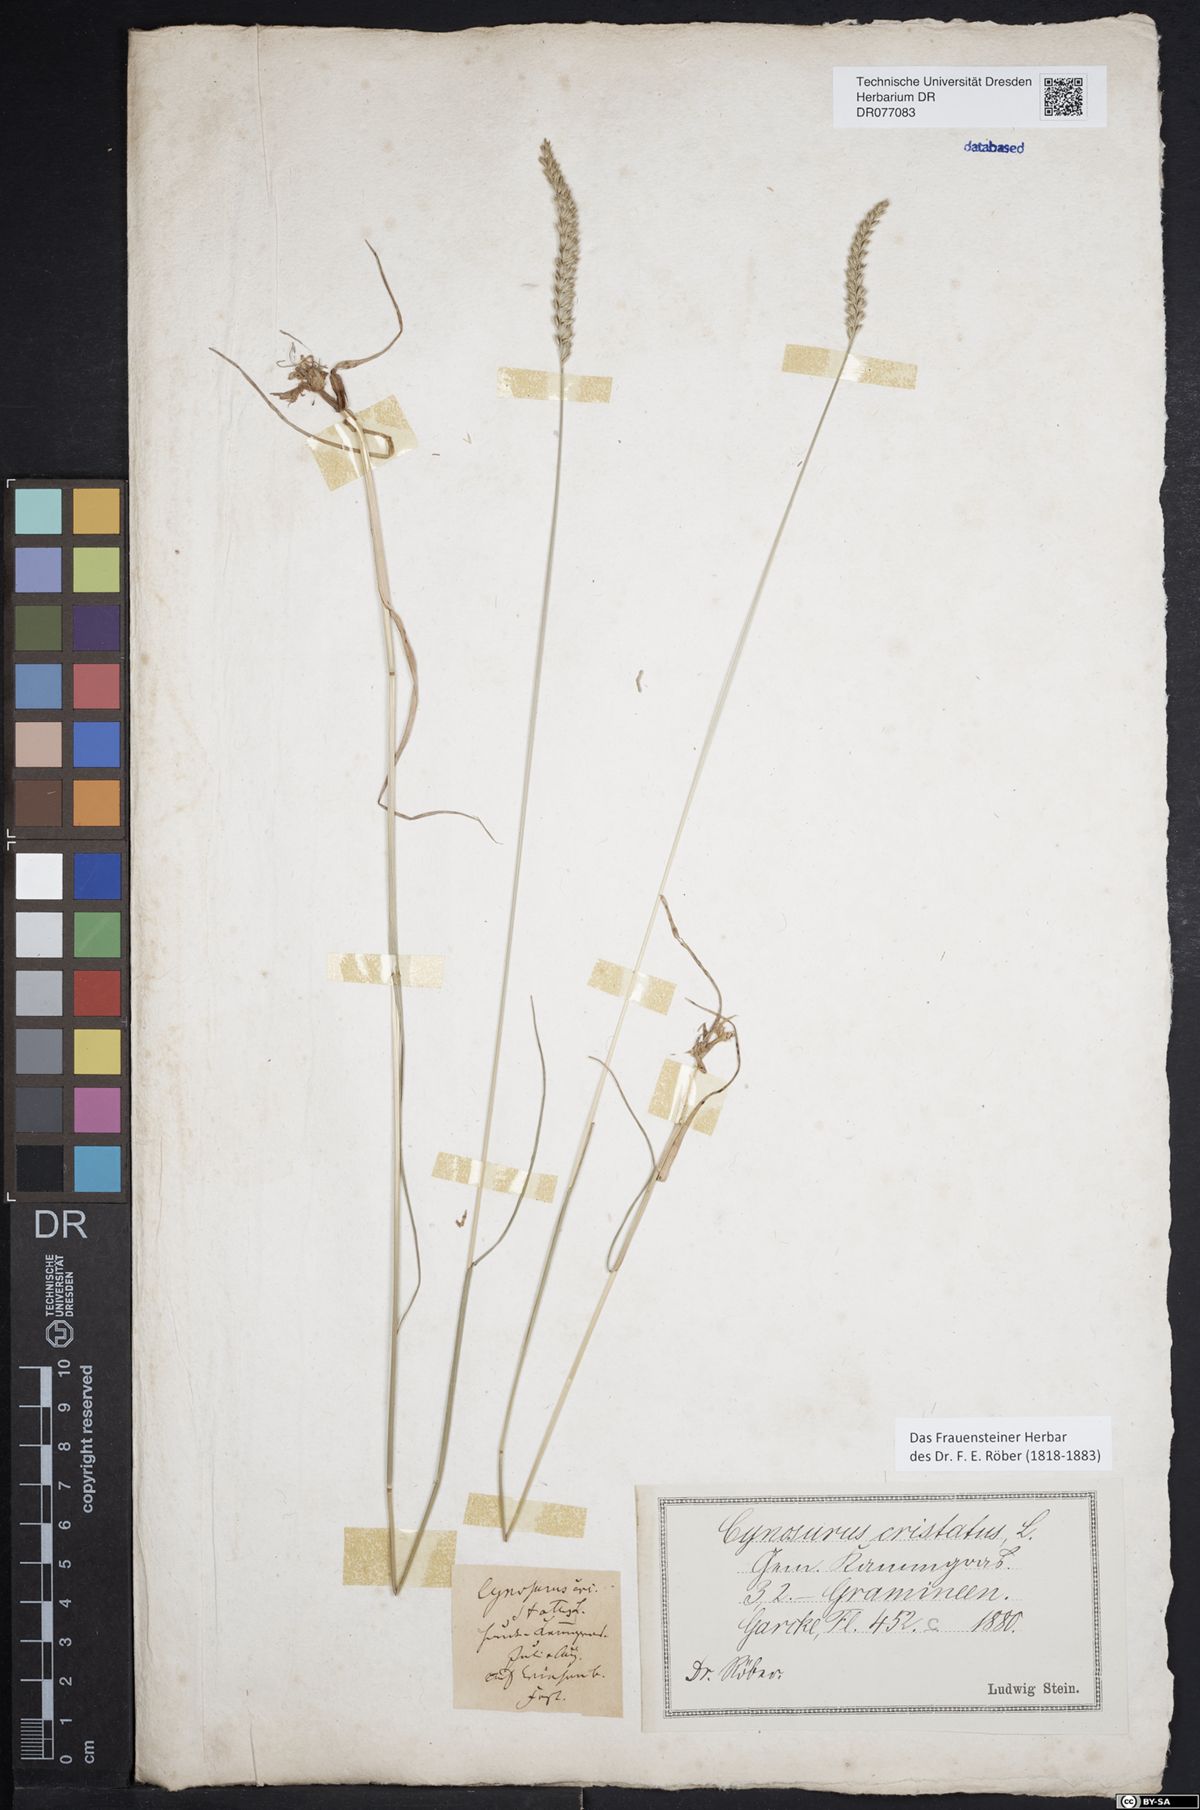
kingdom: Plantae
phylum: Tracheophyta
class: Liliopsida
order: Poales
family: Poaceae
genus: Cynosurus
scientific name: Cynosurus cristatus
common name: Crested dog's-tail
